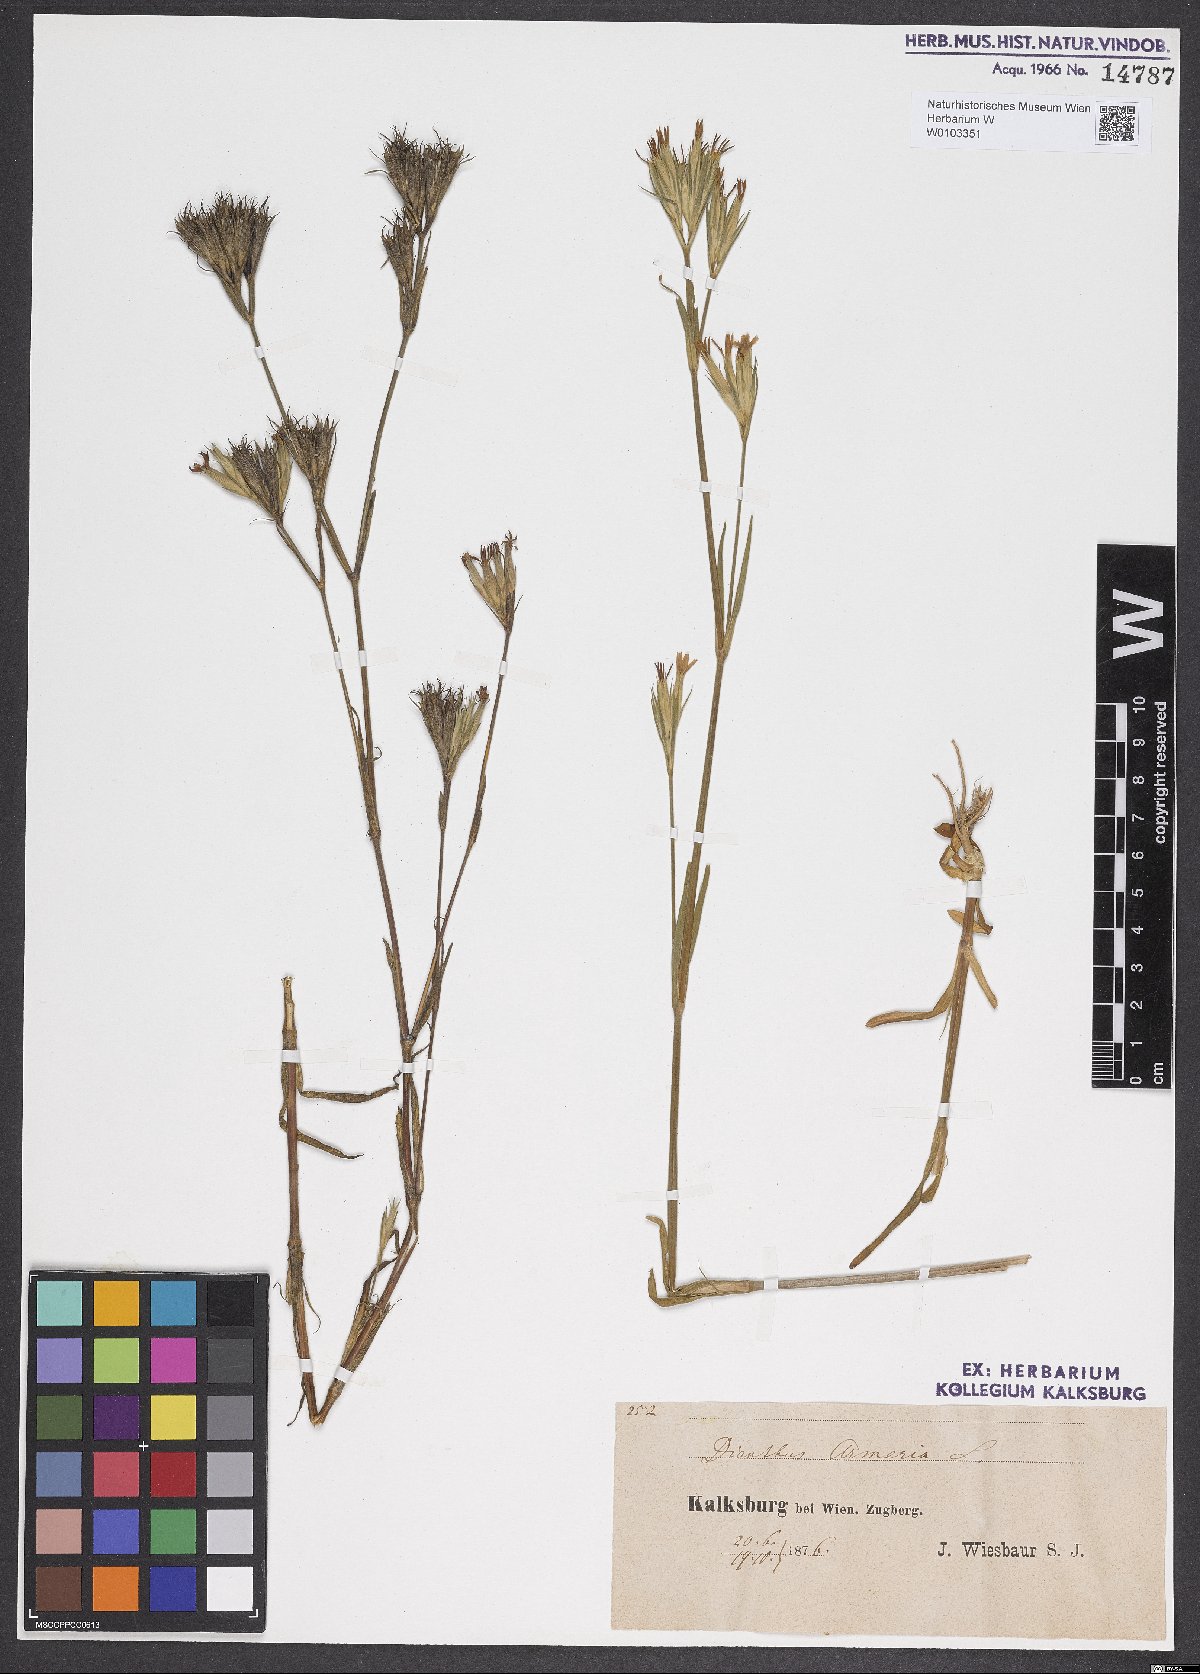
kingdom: Plantae
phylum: Tracheophyta
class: Magnoliopsida
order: Caryophyllales
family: Caryophyllaceae
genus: Dianthus
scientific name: Dianthus armeria
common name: Deptford pink
